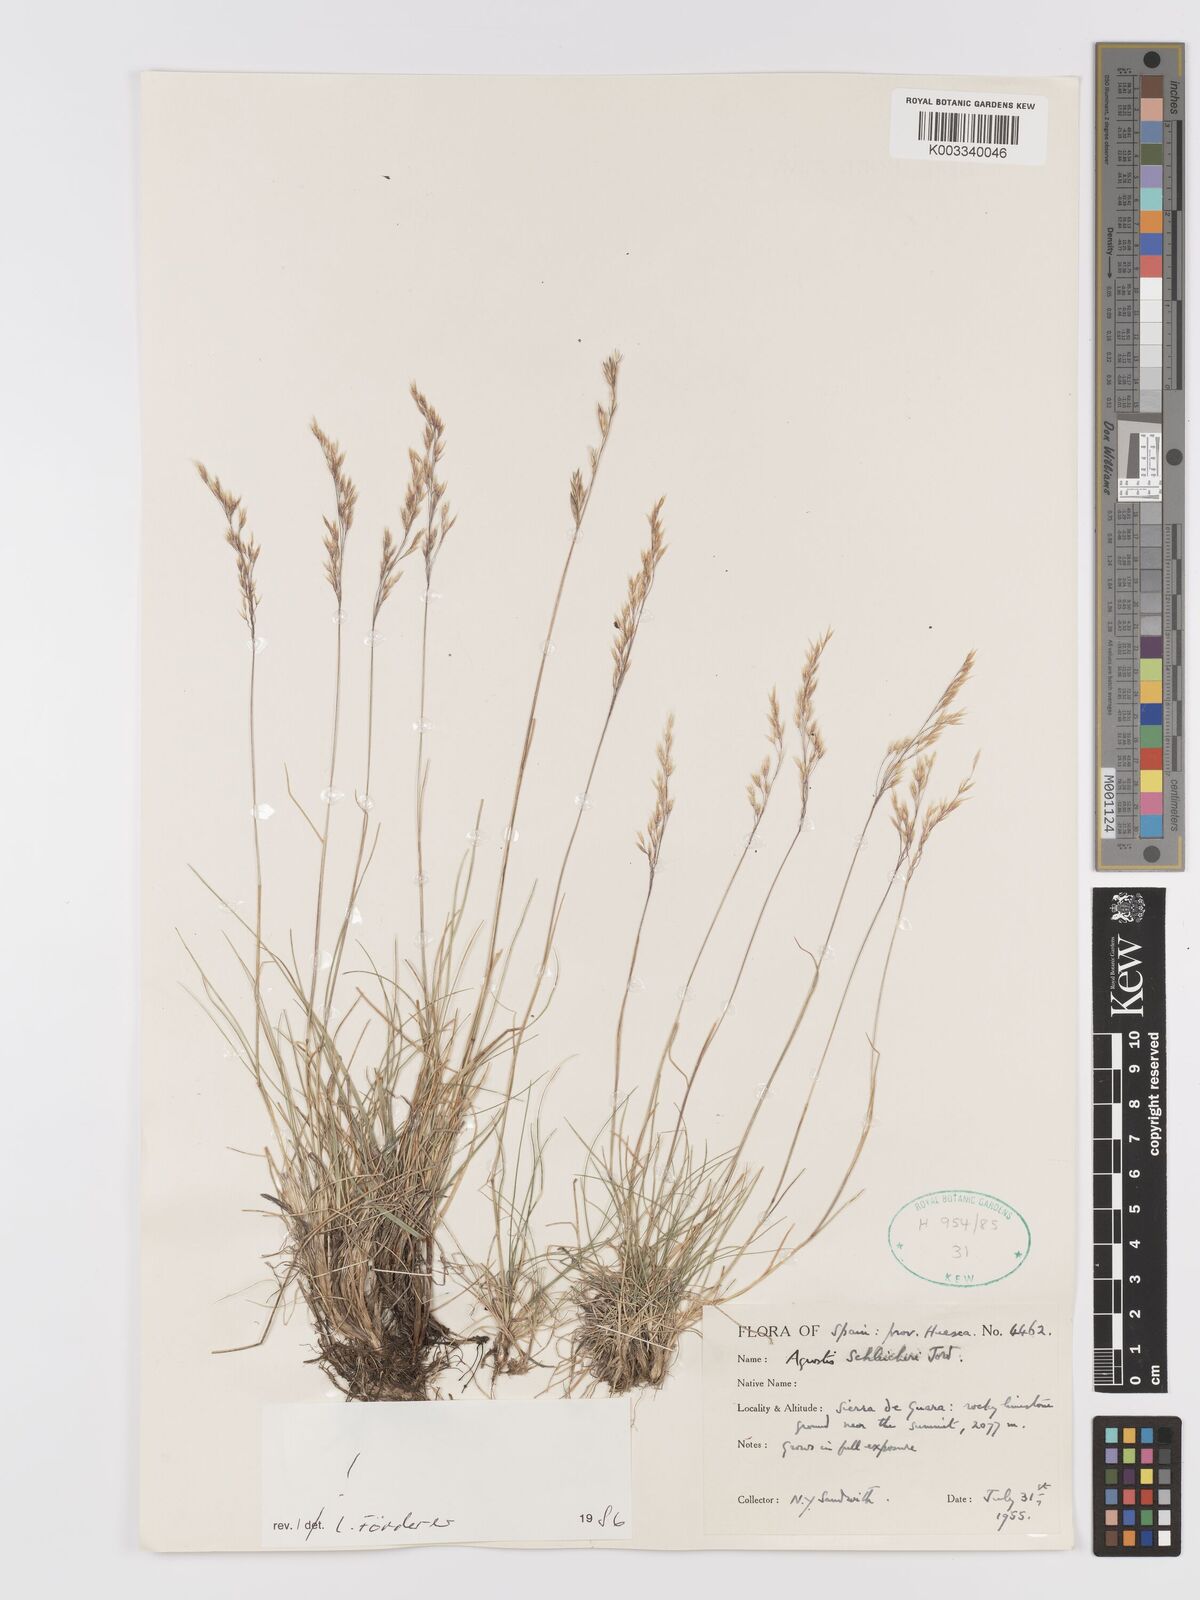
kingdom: Plantae
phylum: Tracheophyta
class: Liliopsida
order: Poales
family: Poaceae
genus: Alpagrostis
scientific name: Alpagrostis schleicheri
